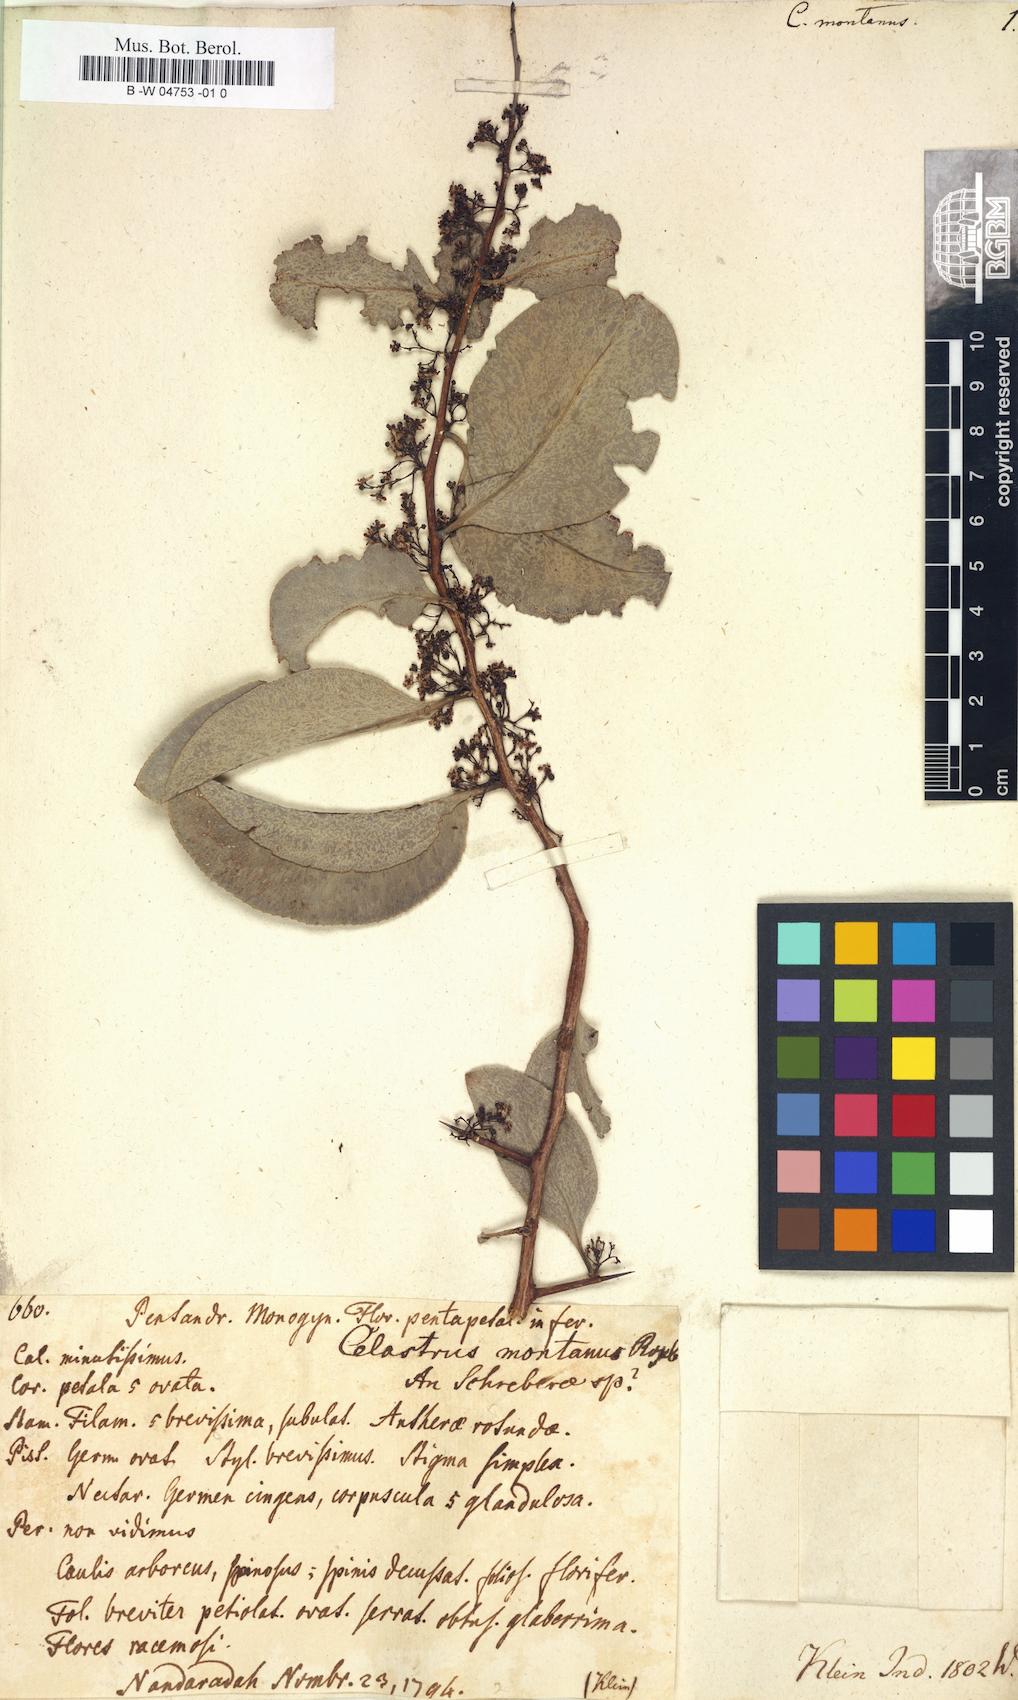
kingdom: Plantae
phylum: Tracheophyta
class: Magnoliopsida
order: Celastrales
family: Celastraceae
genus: Celastrus
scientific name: Celastrus montanus
